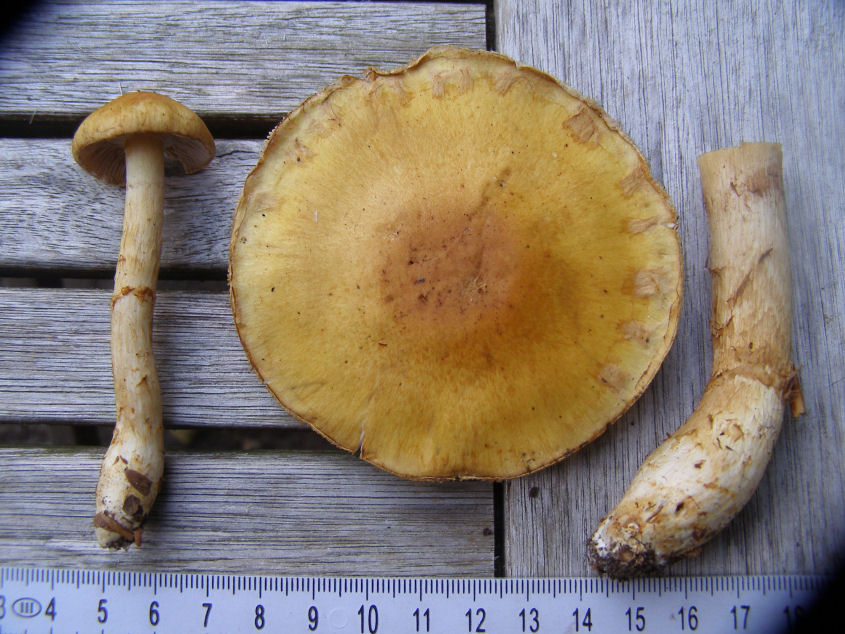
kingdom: Fungi
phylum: Basidiomycota
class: Agaricomycetes
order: Agaricales
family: Cortinariaceae
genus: Phlegmacium
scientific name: Phlegmacium triumphans
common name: gulbæltet slørhat
